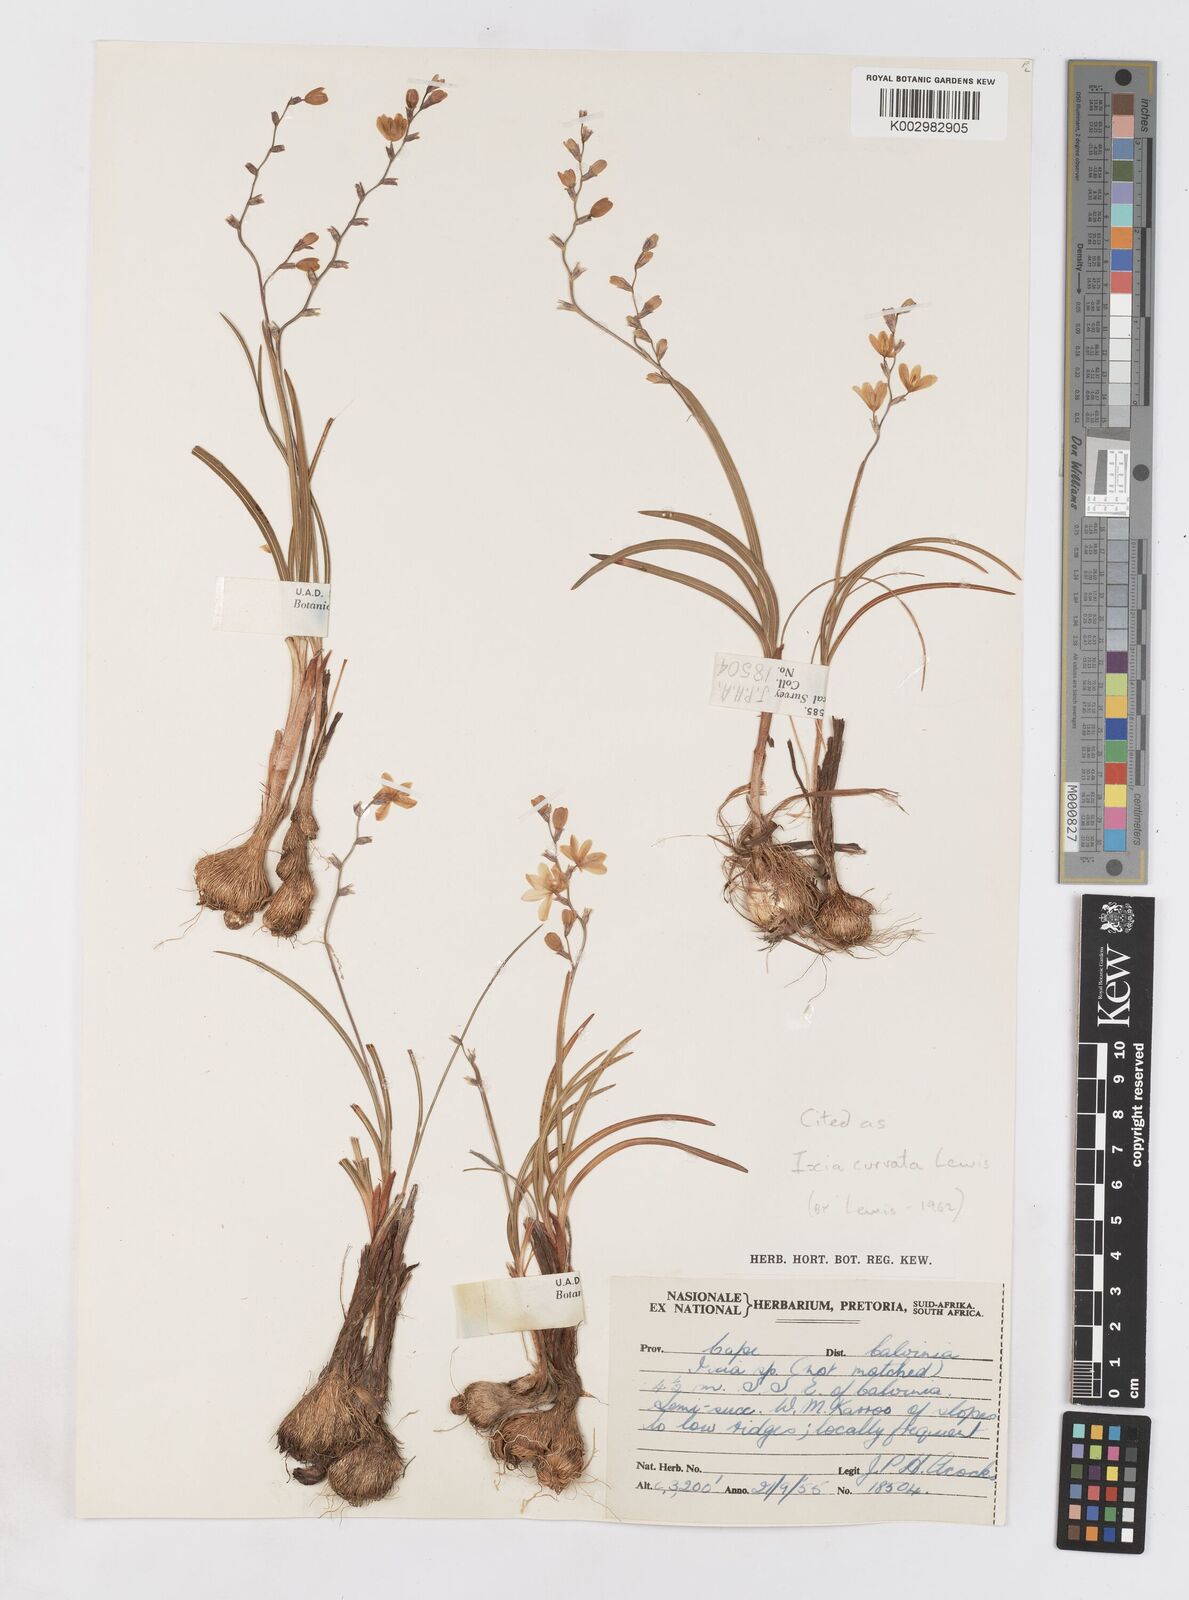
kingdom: Plantae
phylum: Tracheophyta
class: Liliopsida
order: Asparagales
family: Iridaceae
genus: Ixia
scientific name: Ixia curvata
